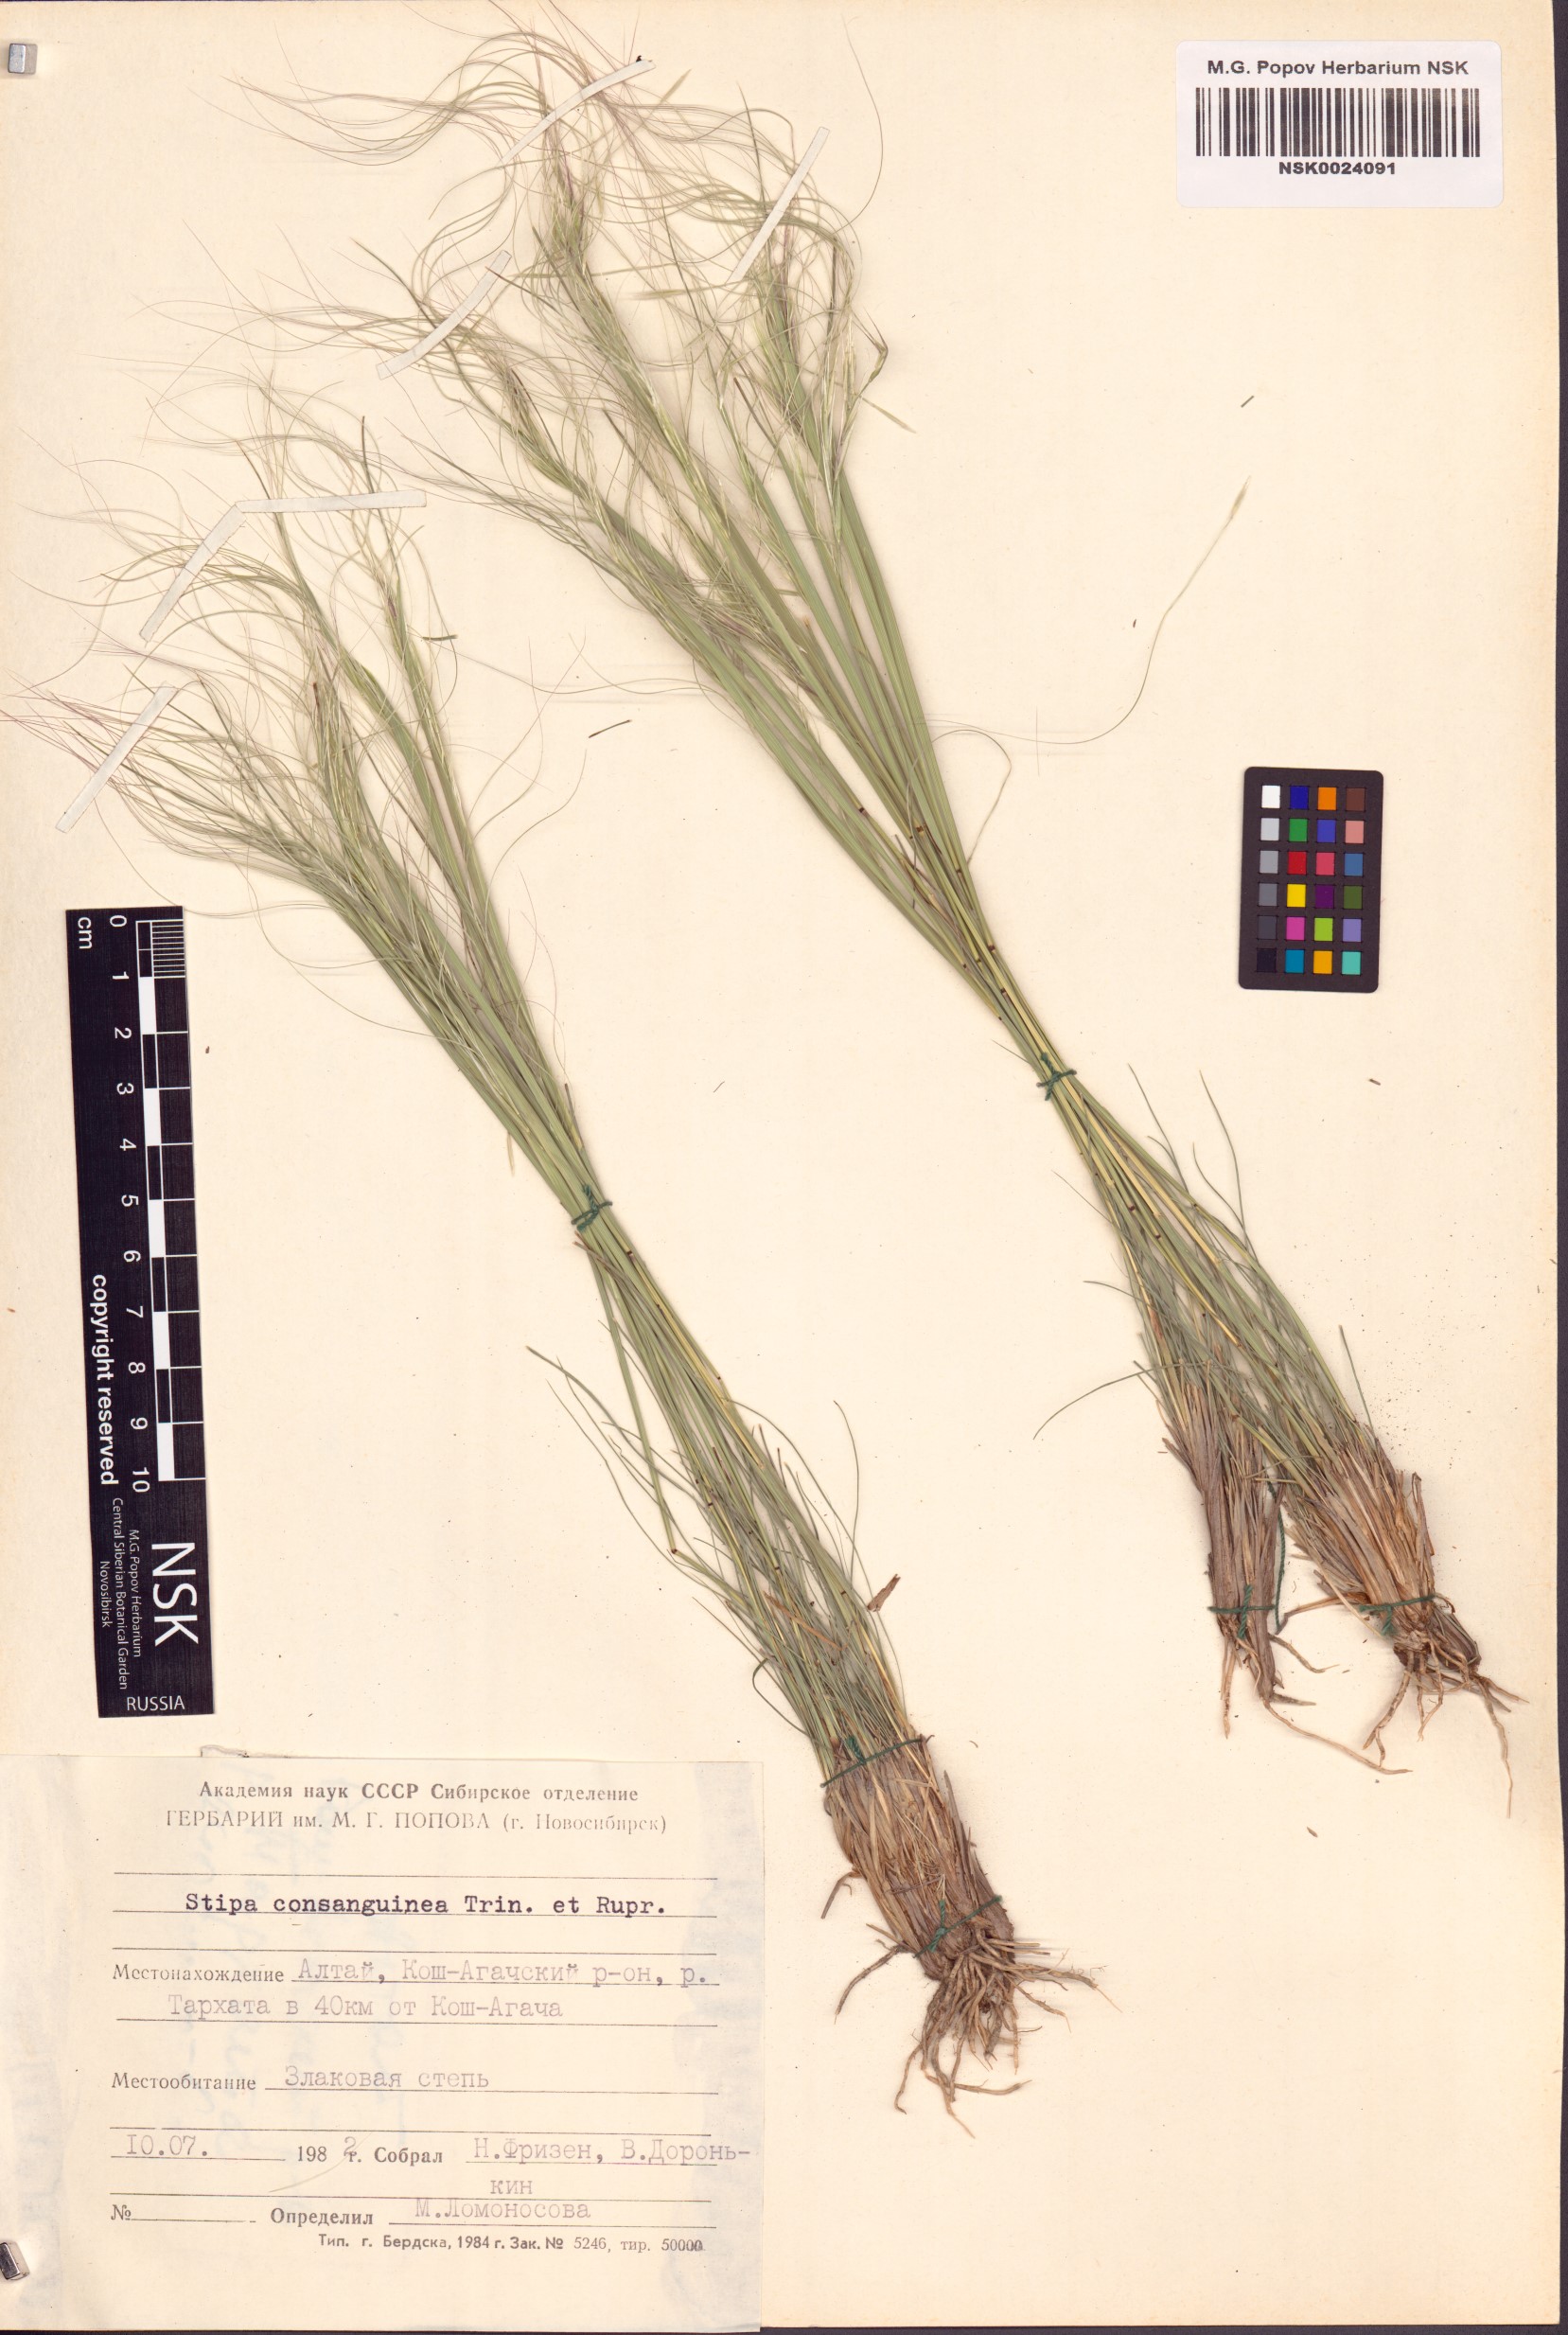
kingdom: Plantae
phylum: Tracheophyta
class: Liliopsida
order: Poales
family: Poaceae
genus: Stipa
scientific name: Stipa consanguinea
